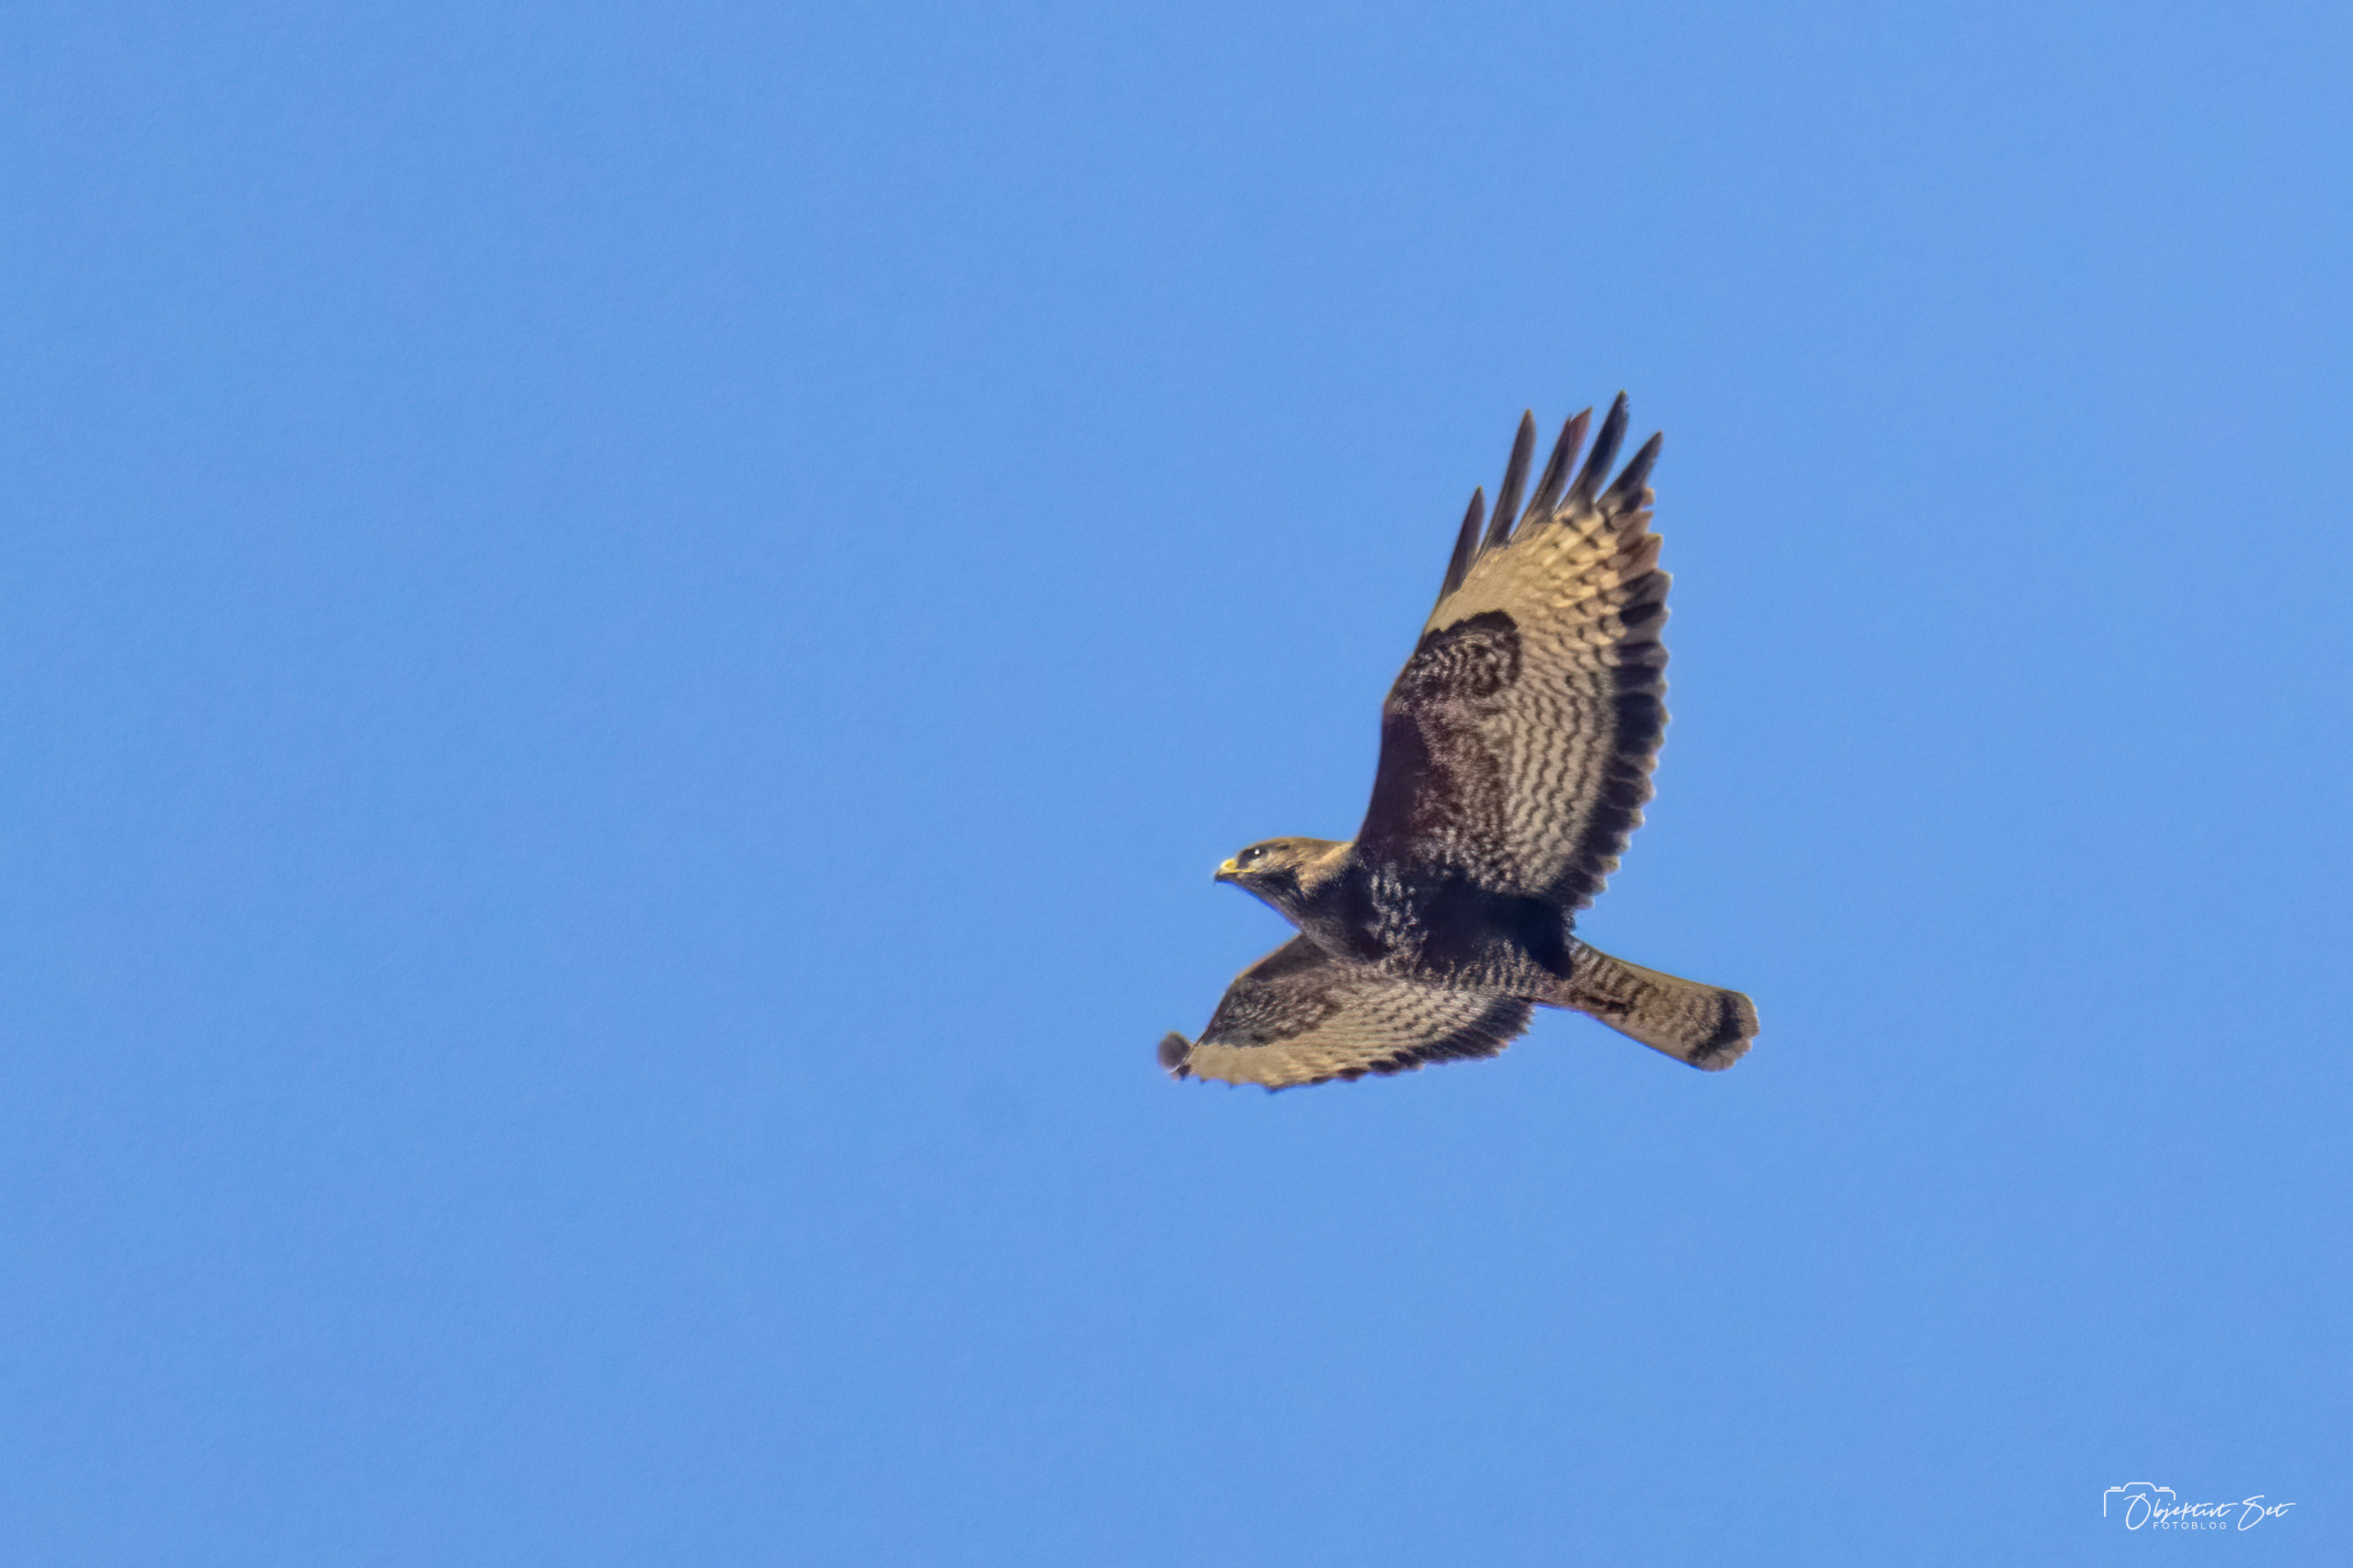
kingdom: Animalia
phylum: Chordata
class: Aves
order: Accipitriformes
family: Accipitridae
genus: Buteo
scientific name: Buteo buteo
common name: Musvåge
